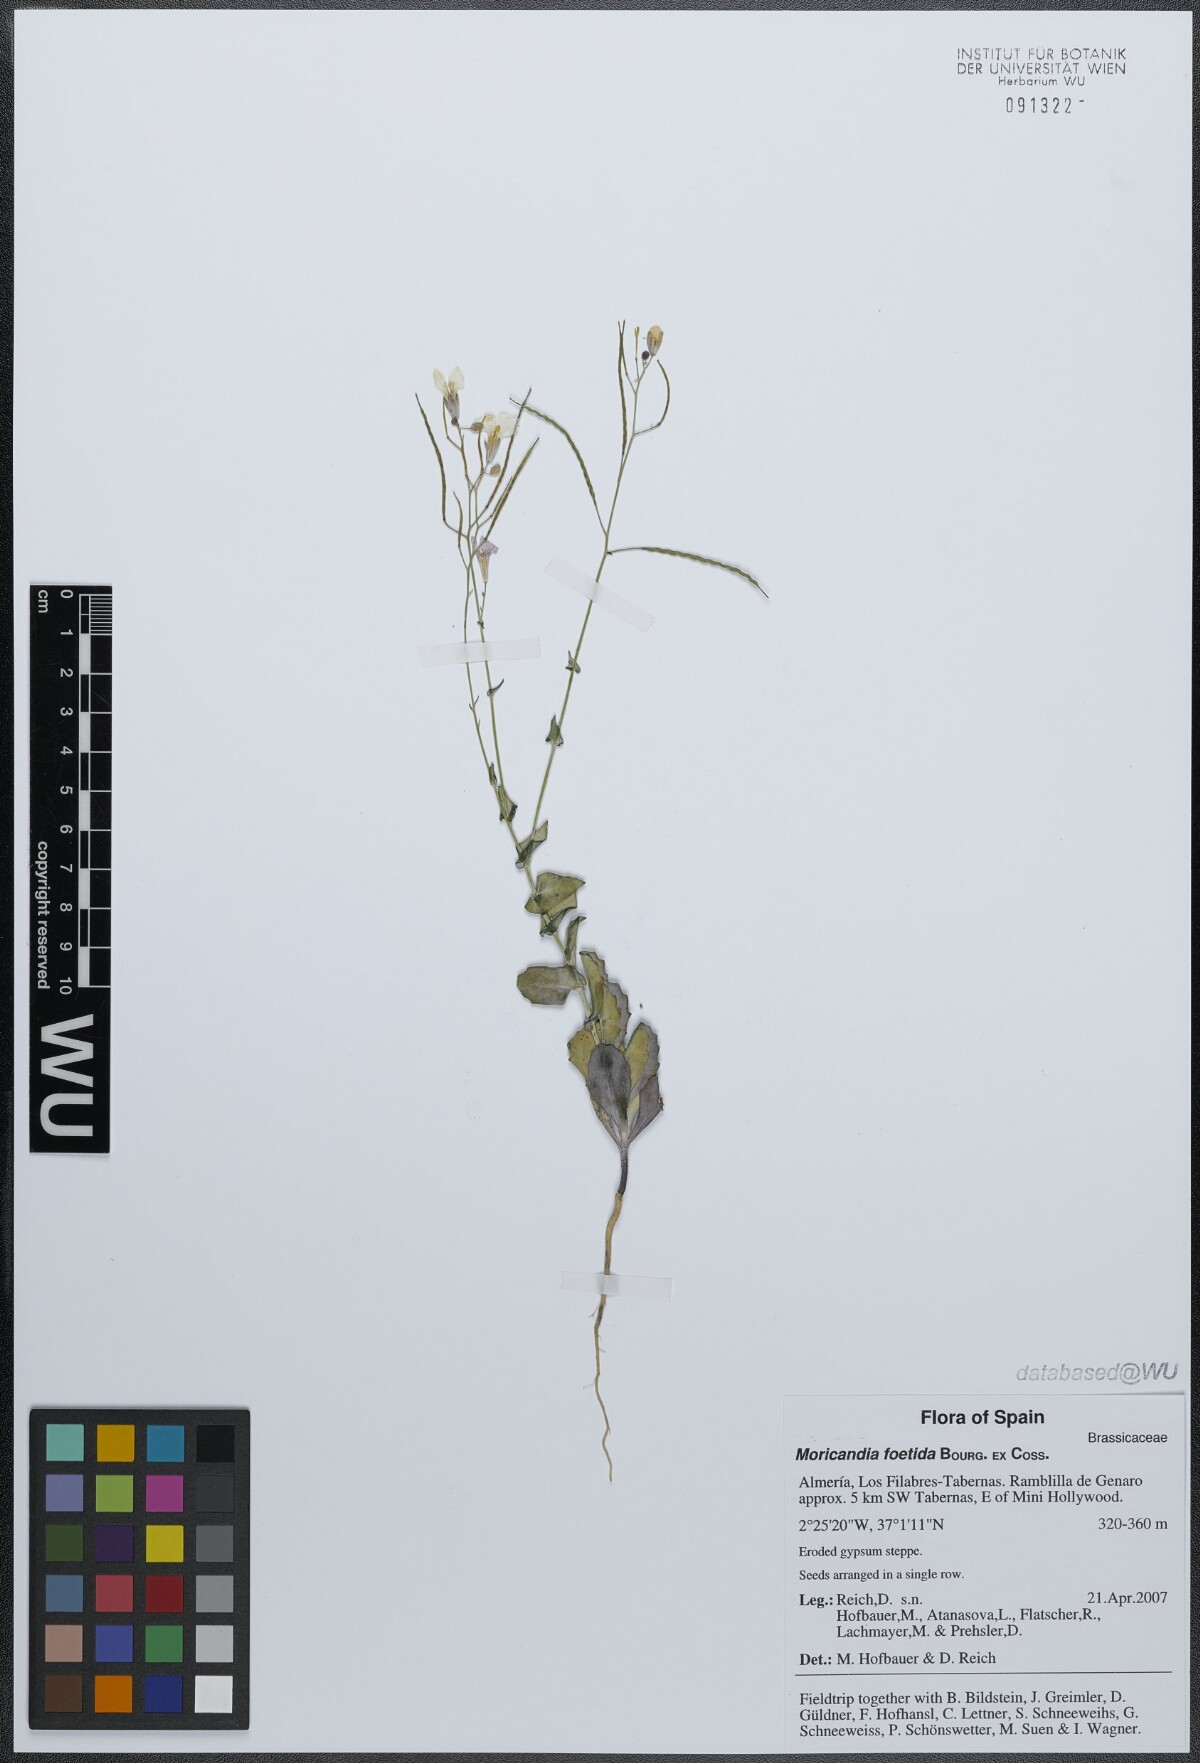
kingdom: Plantae
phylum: Tracheophyta
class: Magnoliopsida
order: Brassicales
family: Brassicaceae
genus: Moricandia
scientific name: Moricandia foetida
